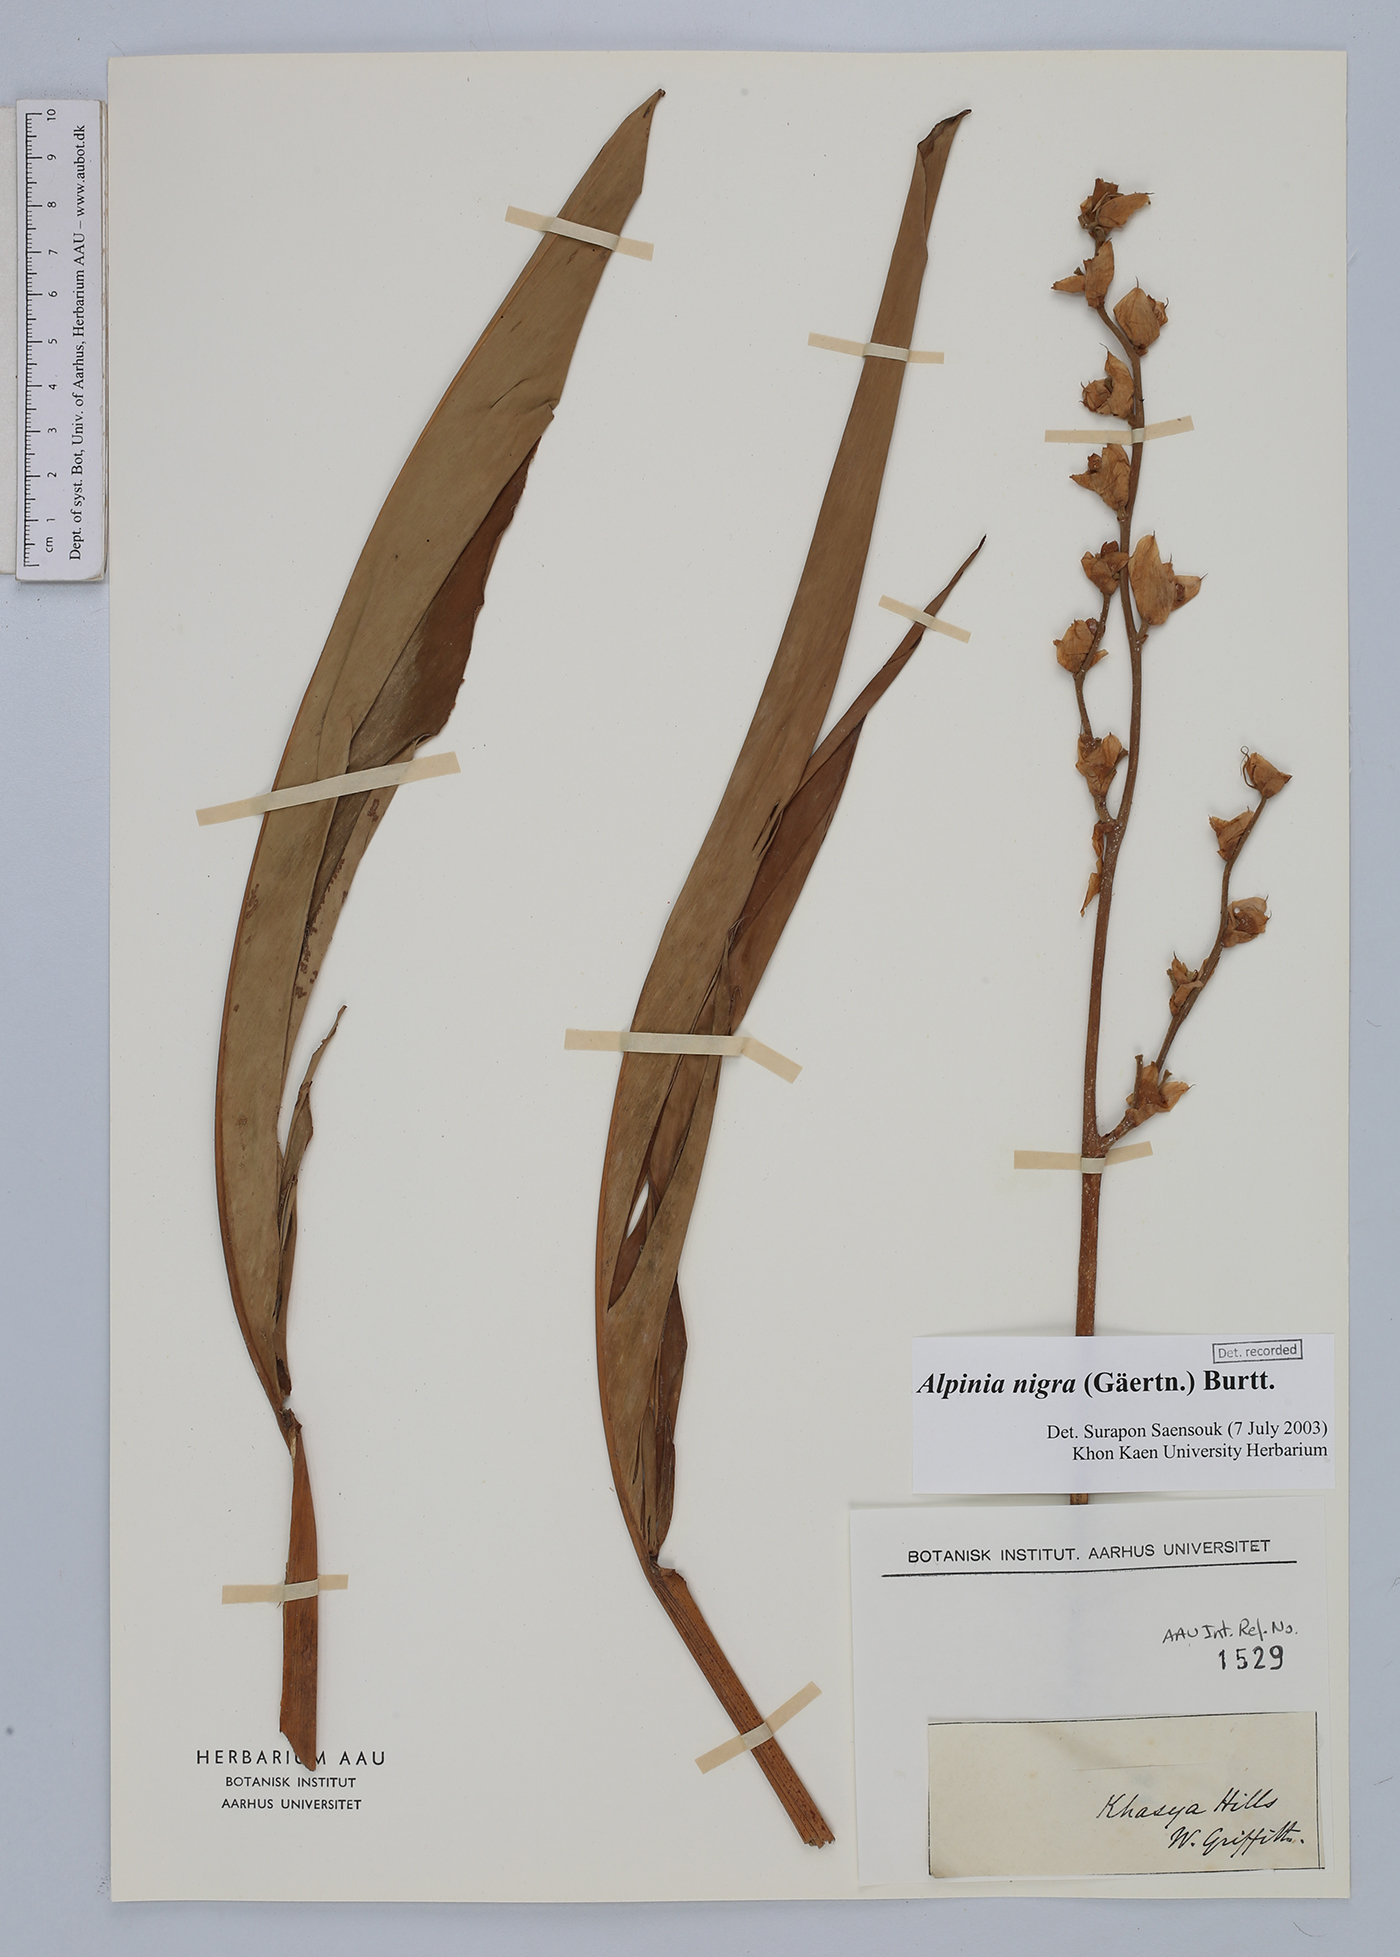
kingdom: Plantae
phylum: Tracheophyta
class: Liliopsida
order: Zingiberales
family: Zingiberaceae
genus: Alpinia
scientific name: Alpinia nigra
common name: Black fruited galanga
